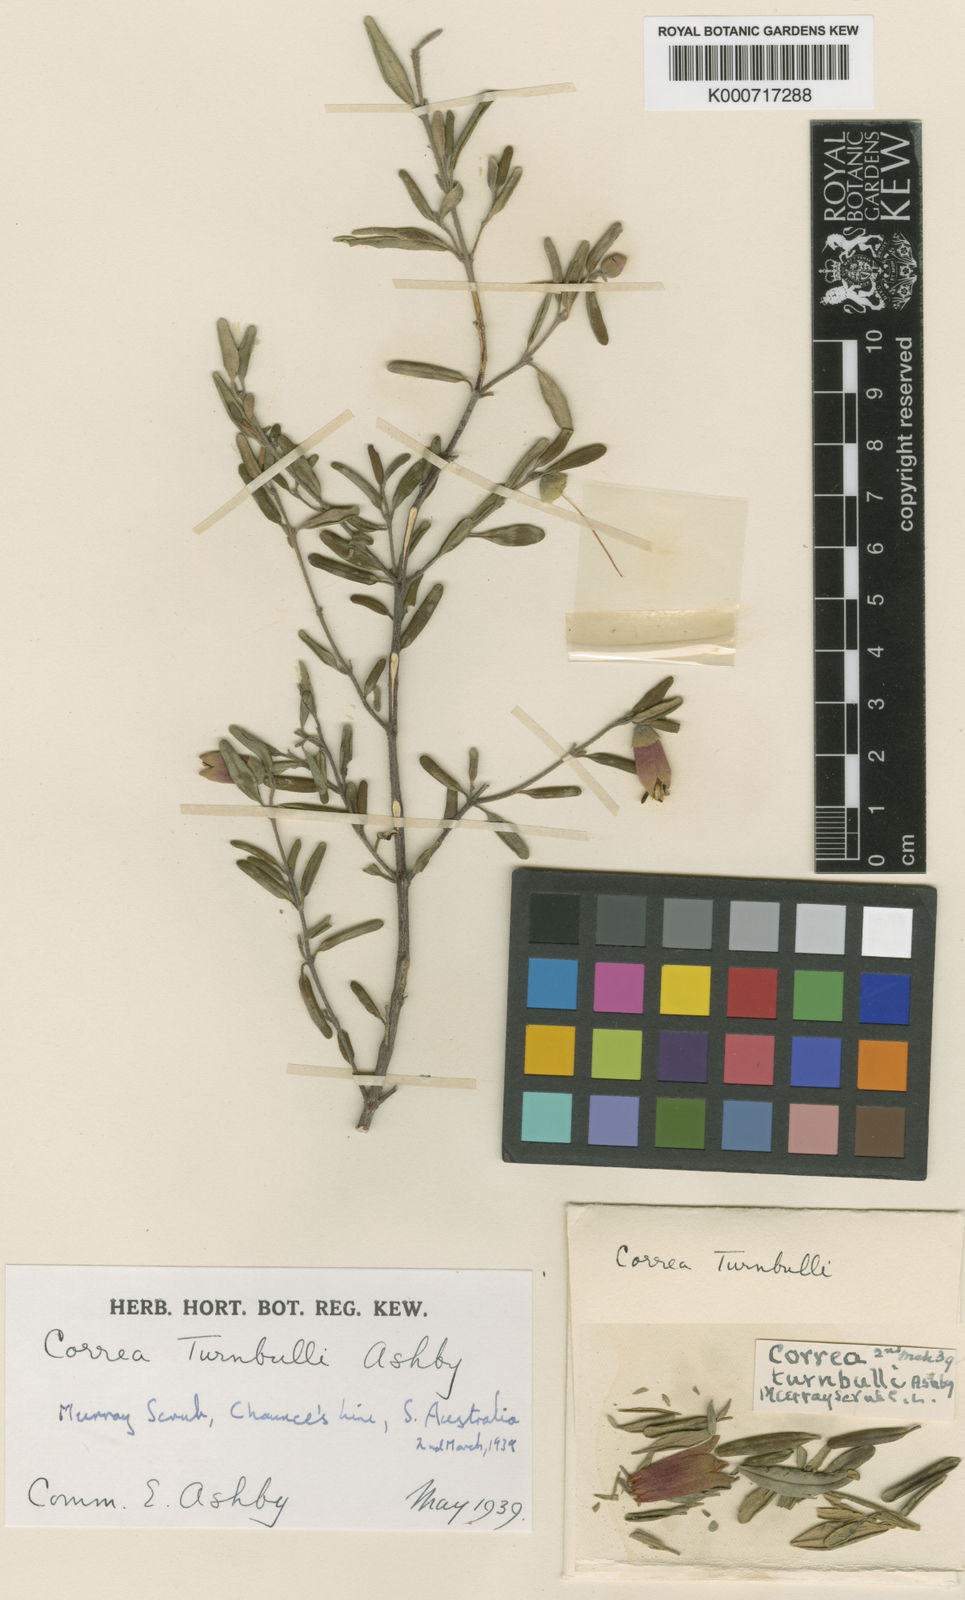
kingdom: Plantae
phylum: Tracheophyta
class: Magnoliopsida
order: Sapindales
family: Rutaceae
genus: Correa
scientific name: Correa glabra
